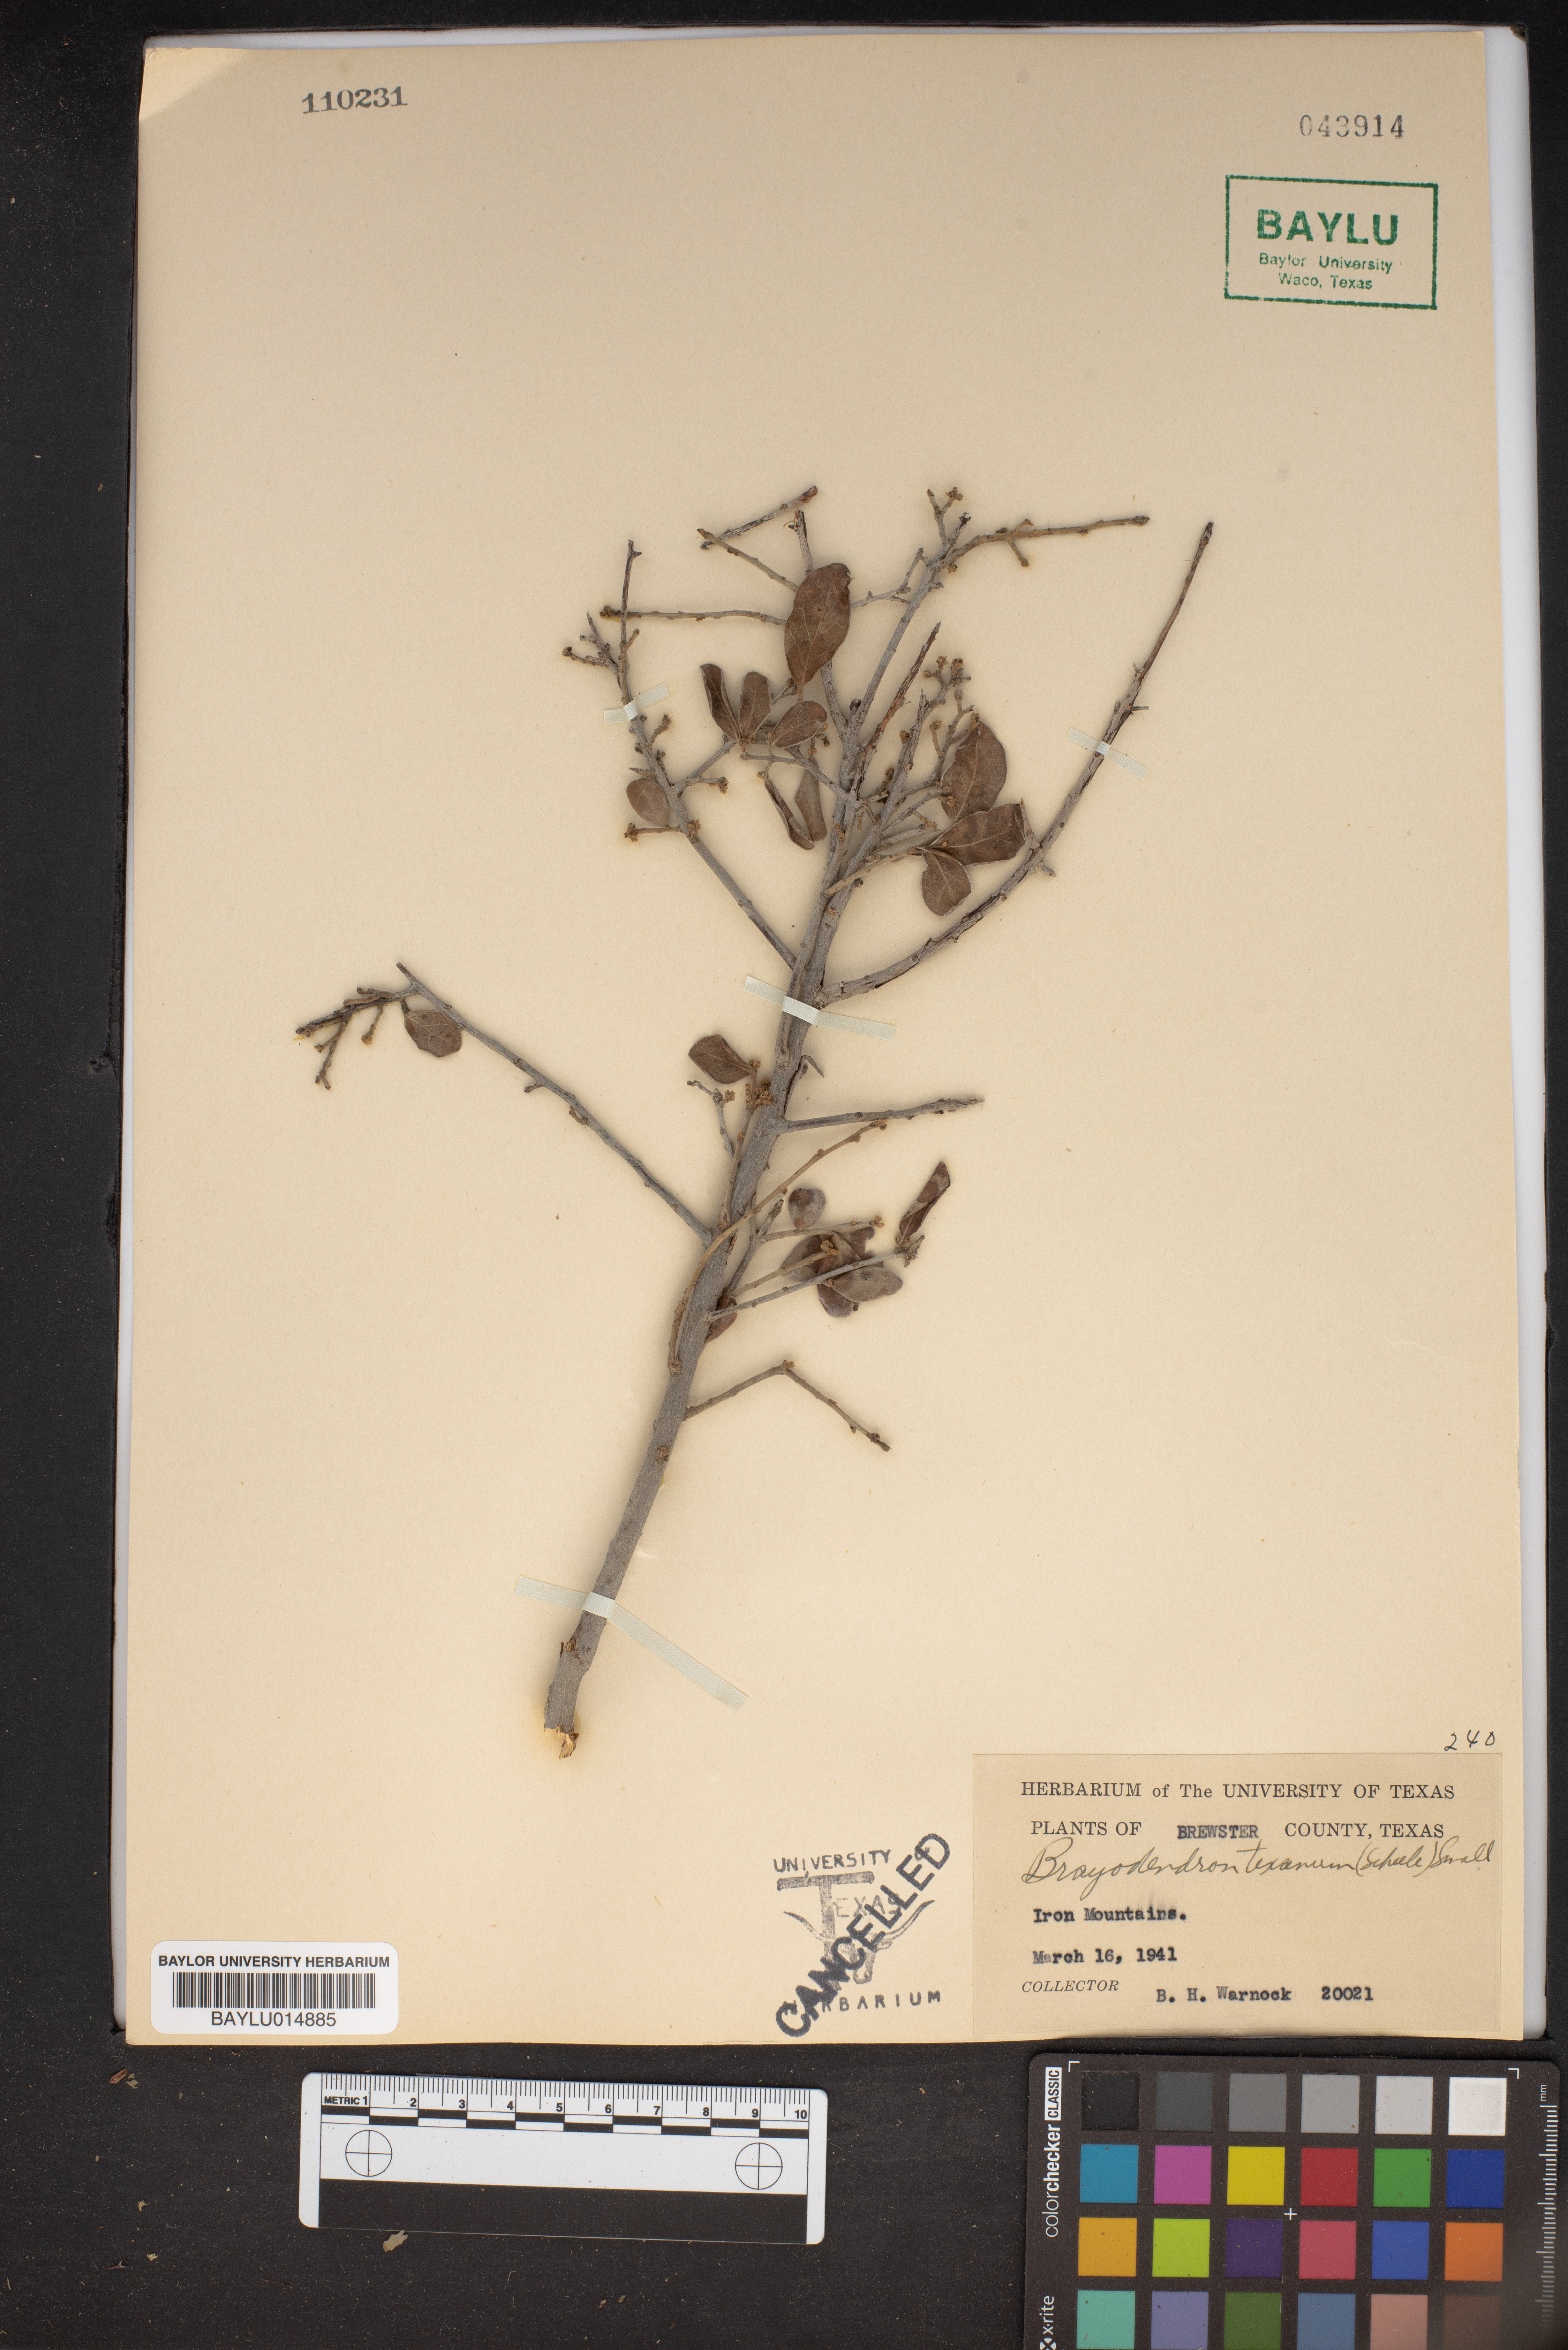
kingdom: Plantae
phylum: Tracheophyta
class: Magnoliopsida
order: Ericales
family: Ebenaceae
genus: Diospyros
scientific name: Diospyros texana
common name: Texas persimmon
